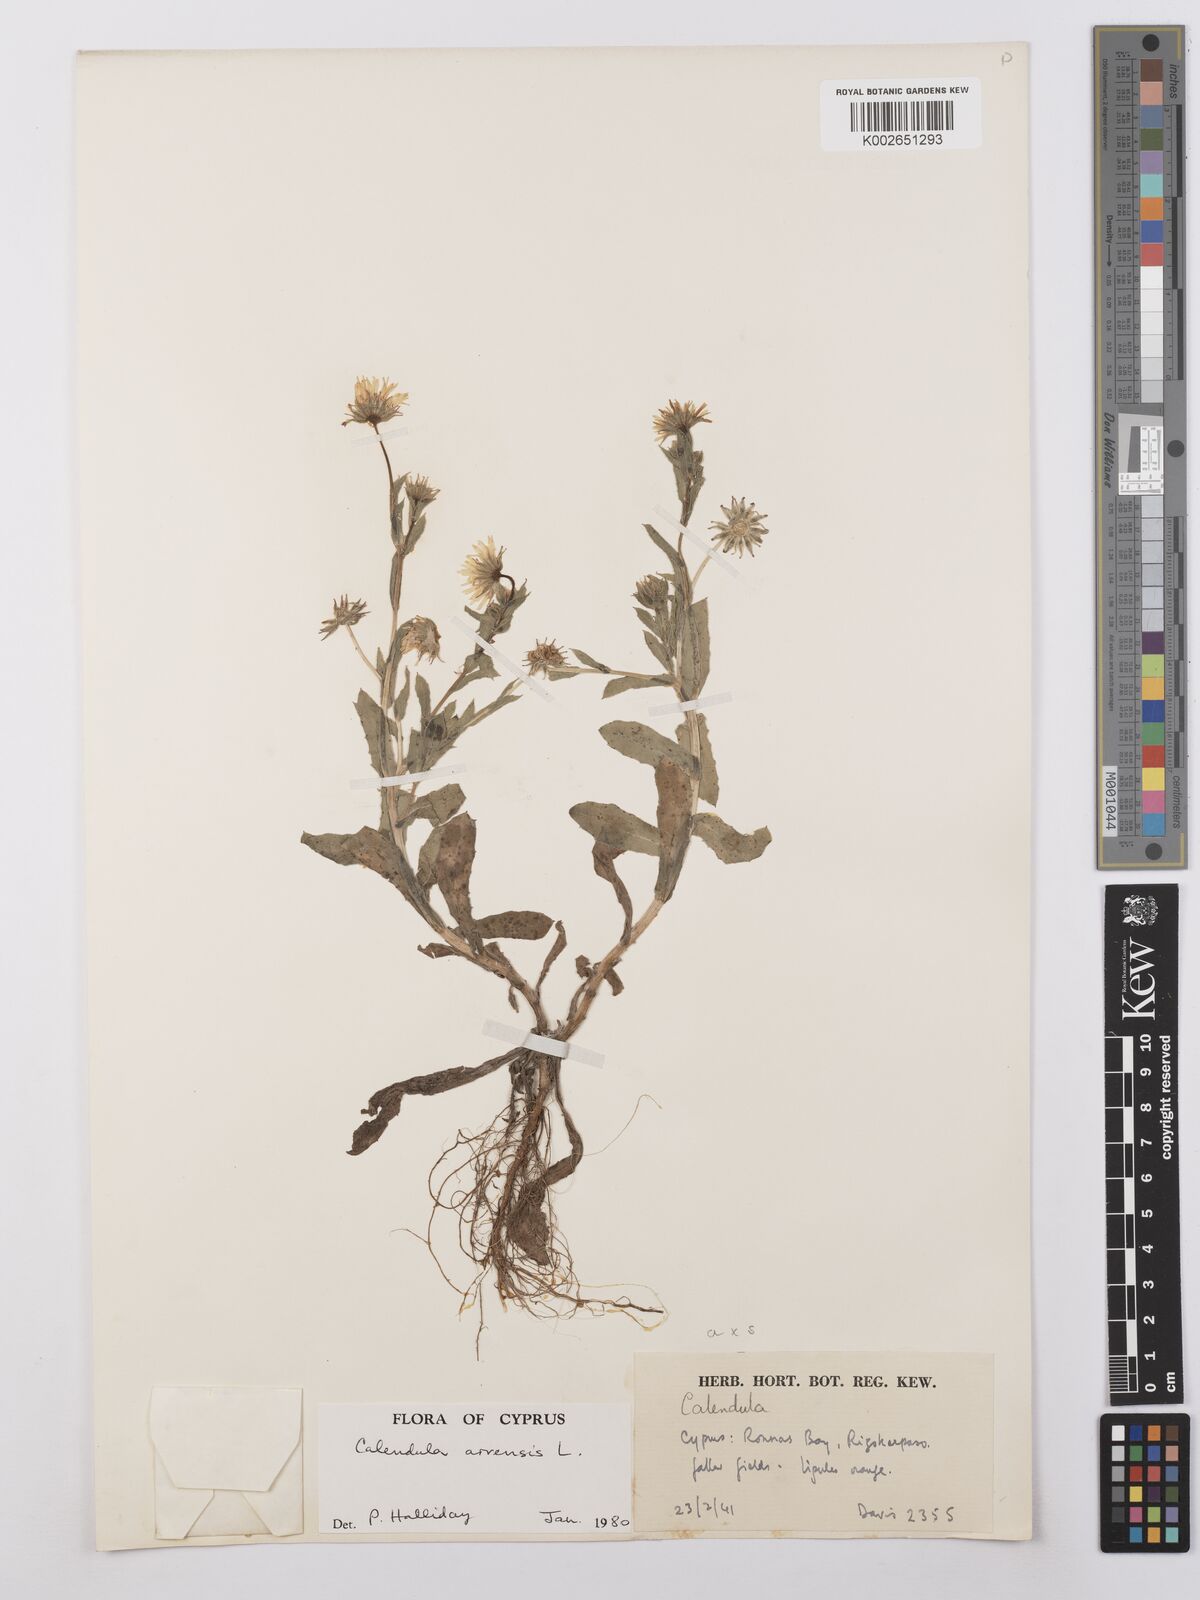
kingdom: Plantae
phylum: Tracheophyta
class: Magnoliopsida
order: Asterales
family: Asteraceae
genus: Calendula
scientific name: Calendula arvensis
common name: Field marigold
